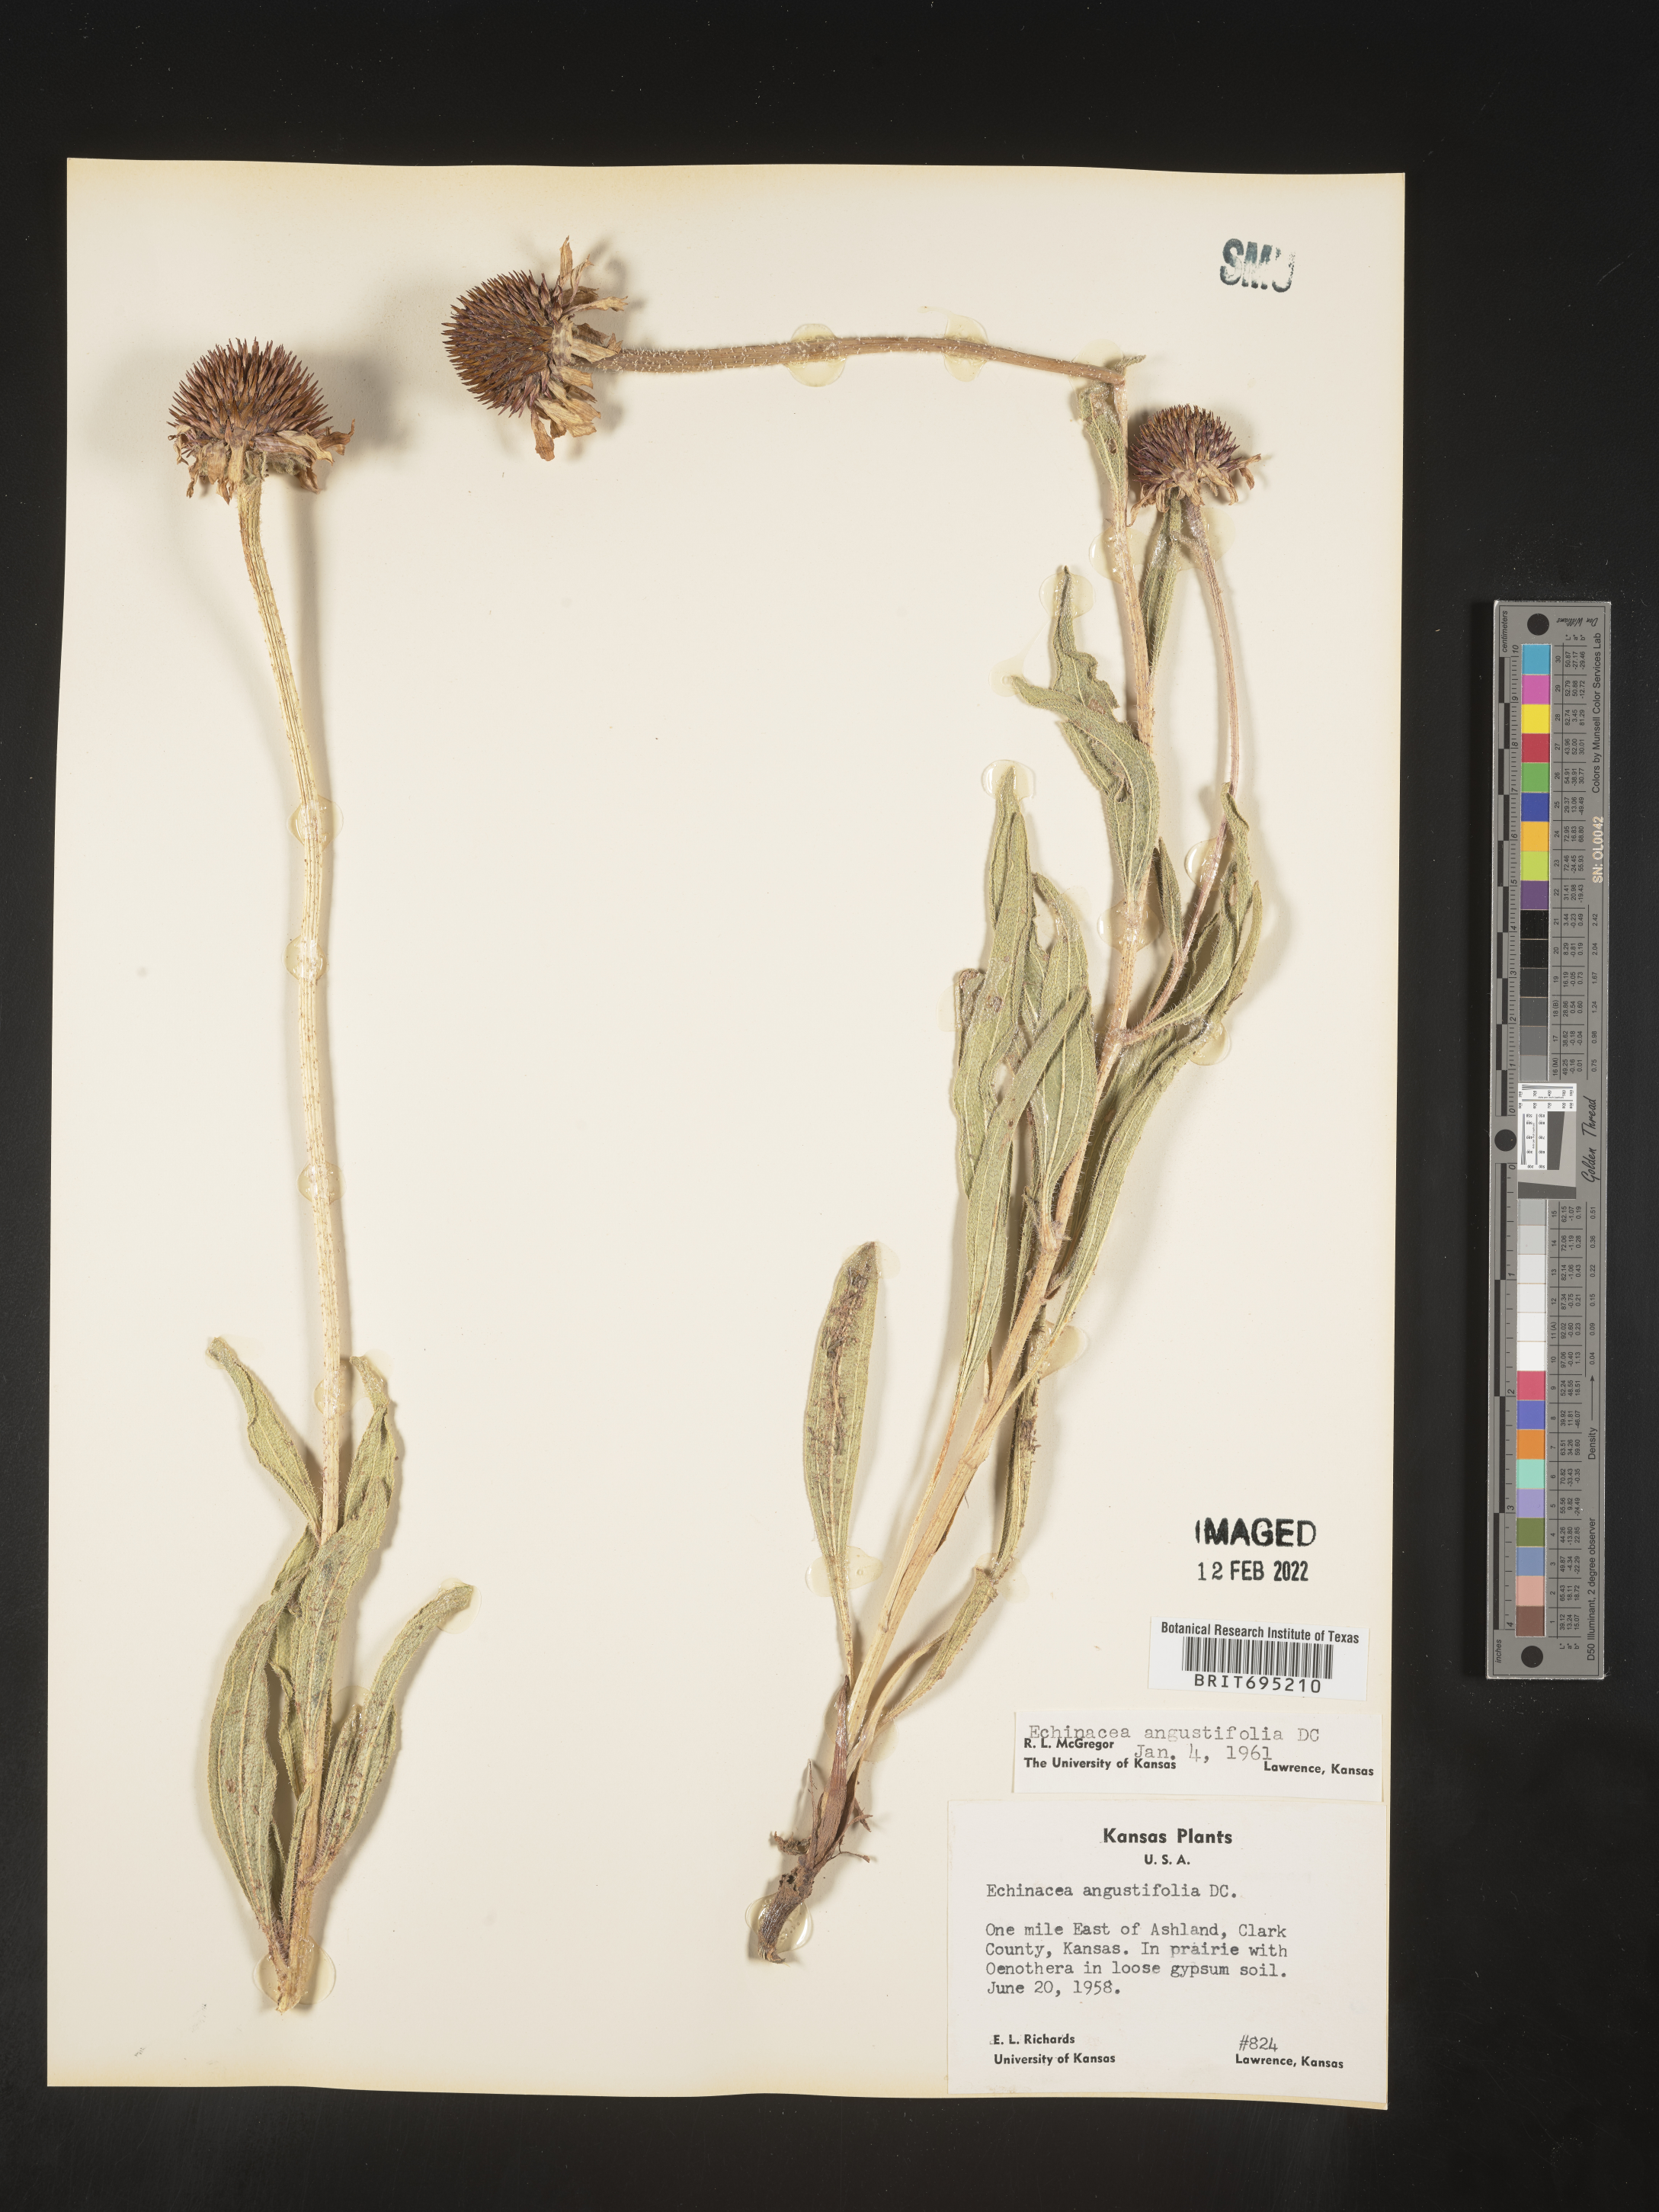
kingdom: Plantae
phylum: Tracheophyta
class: Magnoliopsida
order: Asterales
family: Asteraceae
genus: Echinacea
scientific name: Echinacea angustifolia
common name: Black-sampson echinacea
